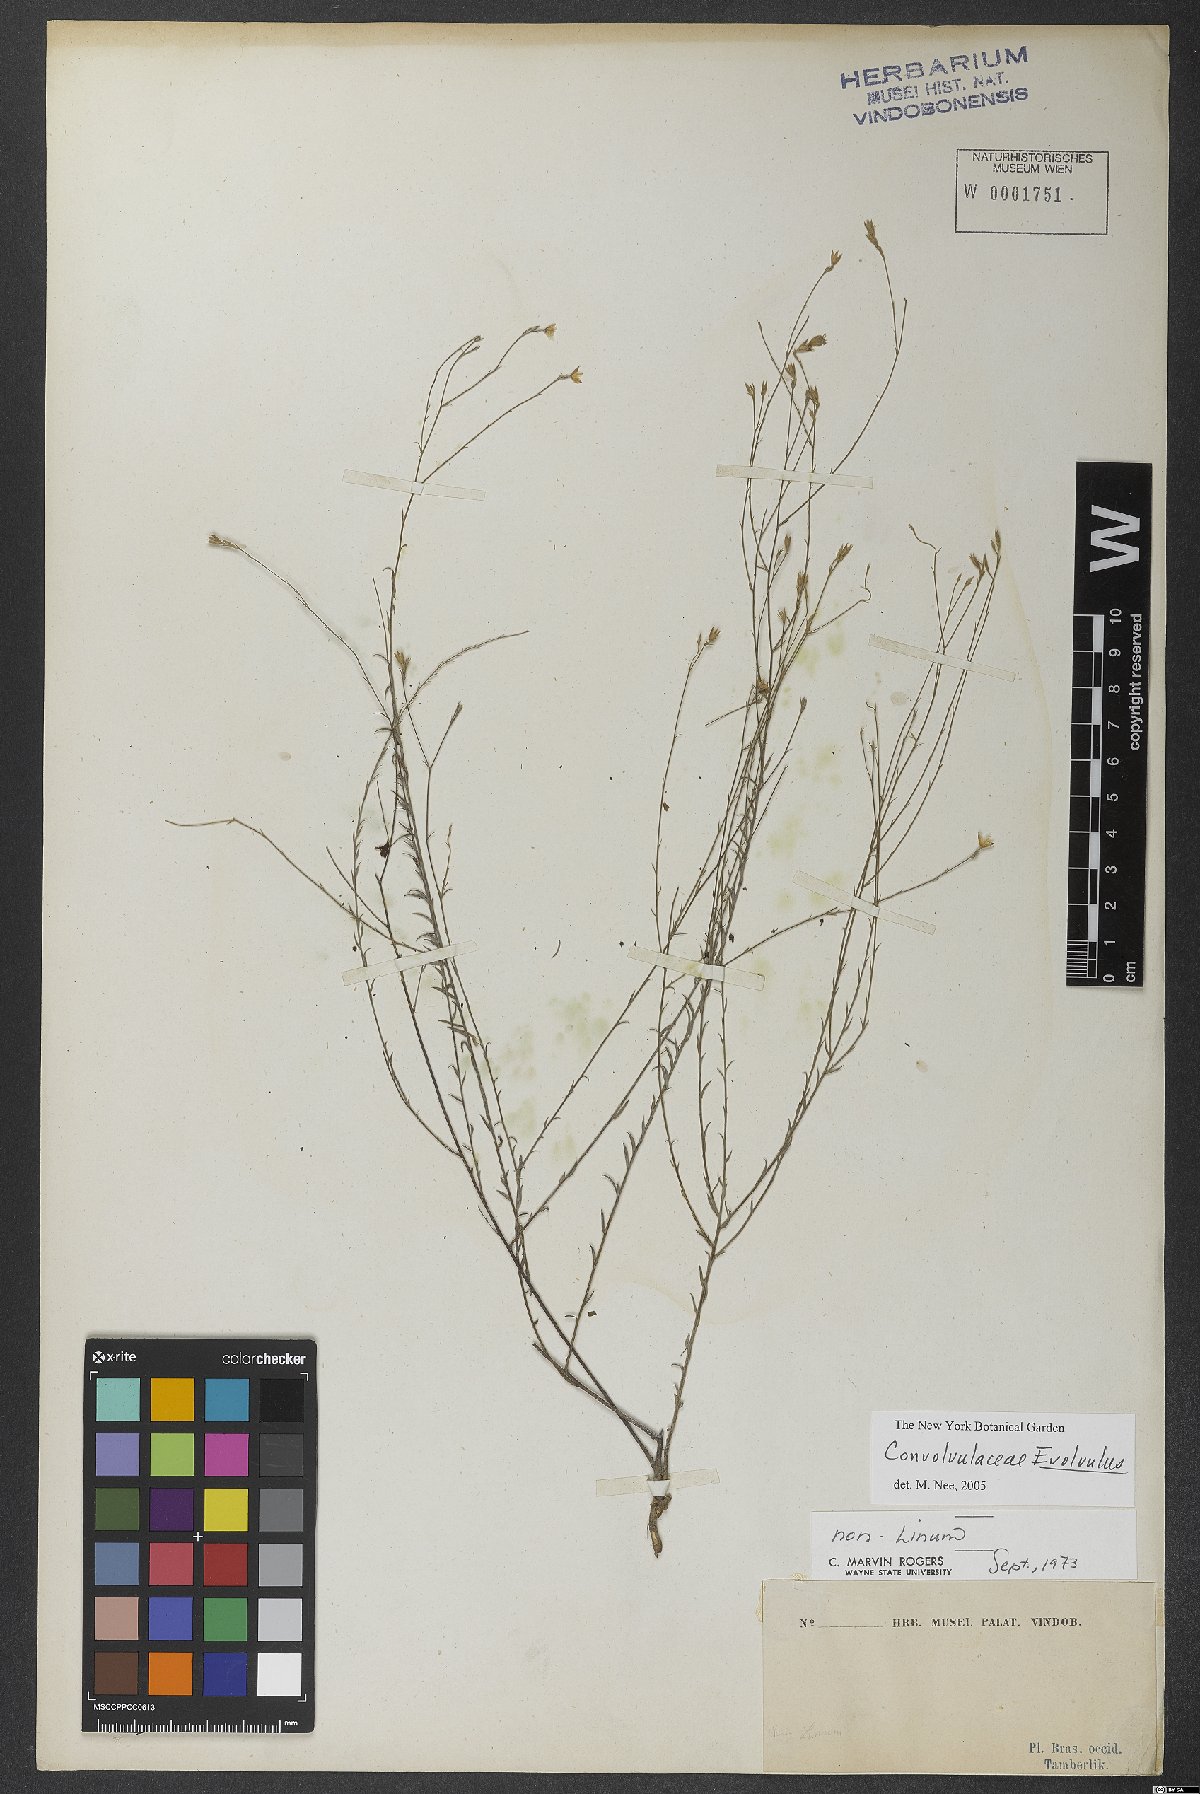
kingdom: Plantae
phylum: Tracheophyta
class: Magnoliopsida
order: Solanales
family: Convolvulaceae
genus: Evolvulus
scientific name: Evolvulus
